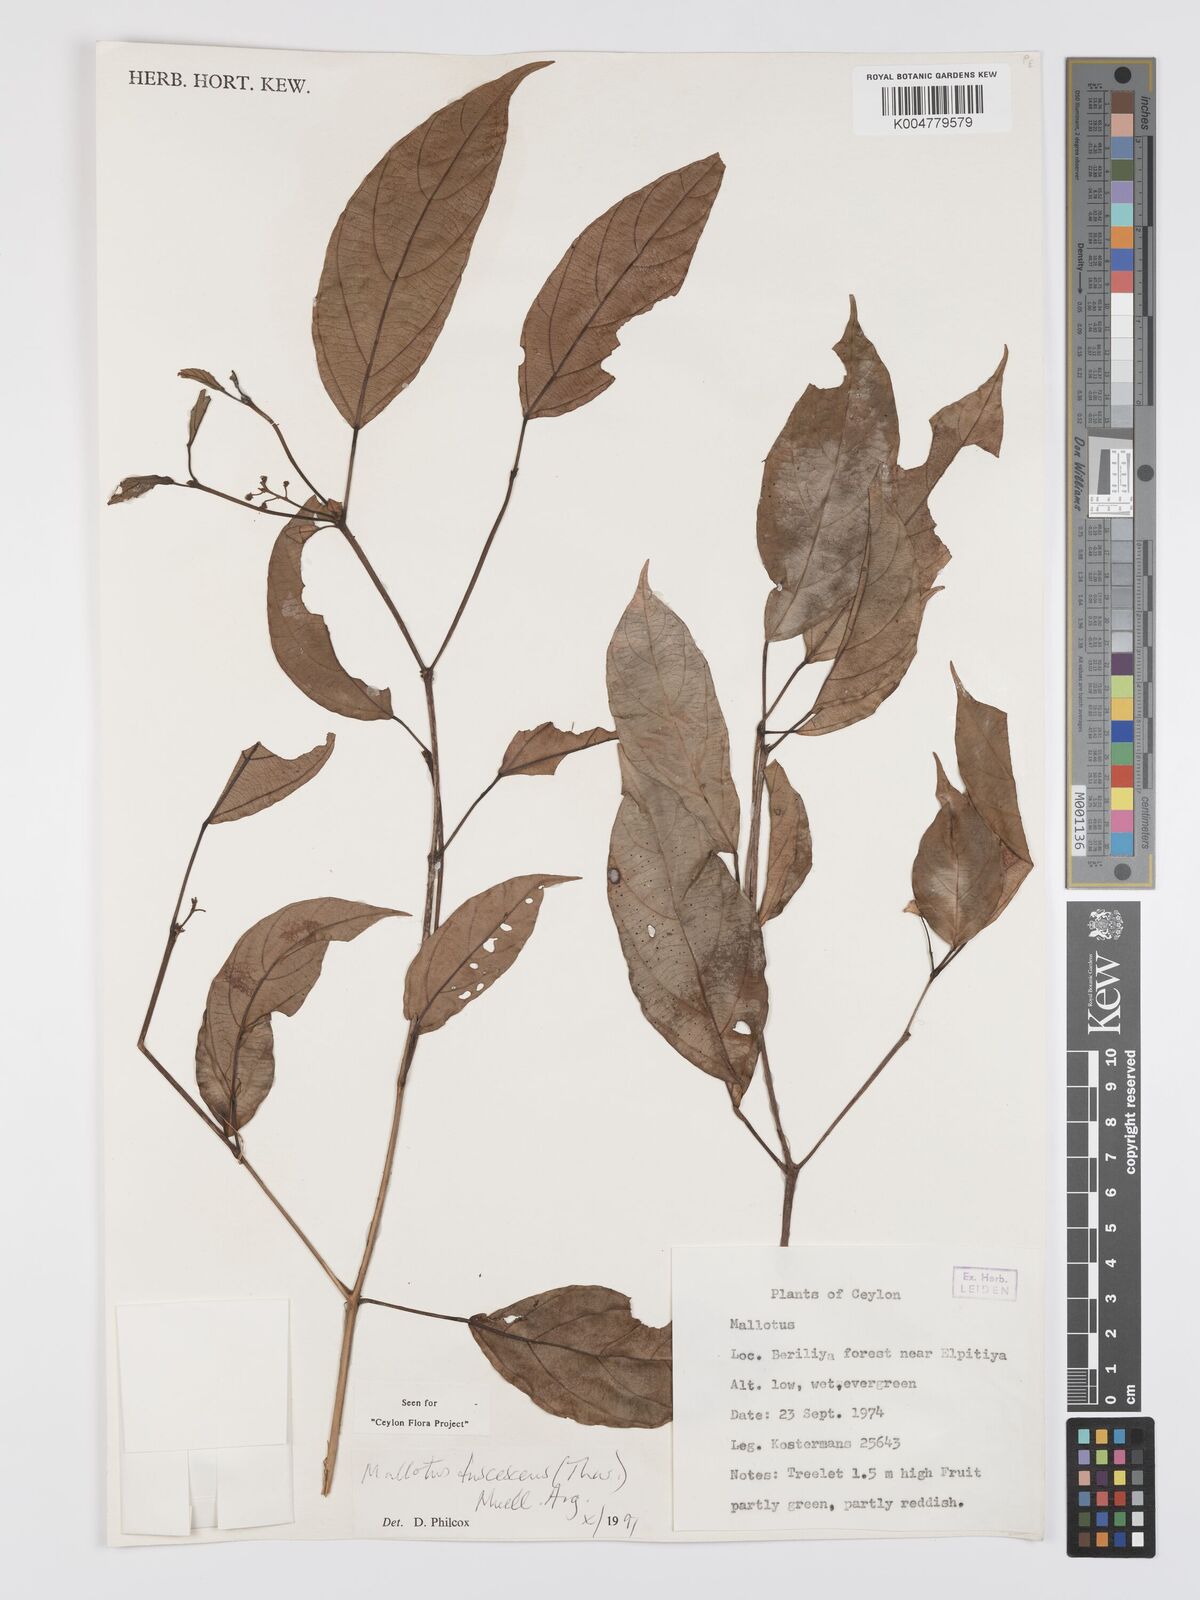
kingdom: Plantae
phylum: Tracheophyta
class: Magnoliopsida
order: Malpighiales
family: Euphorbiaceae
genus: Mallotus
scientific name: Mallotus fuscescens
